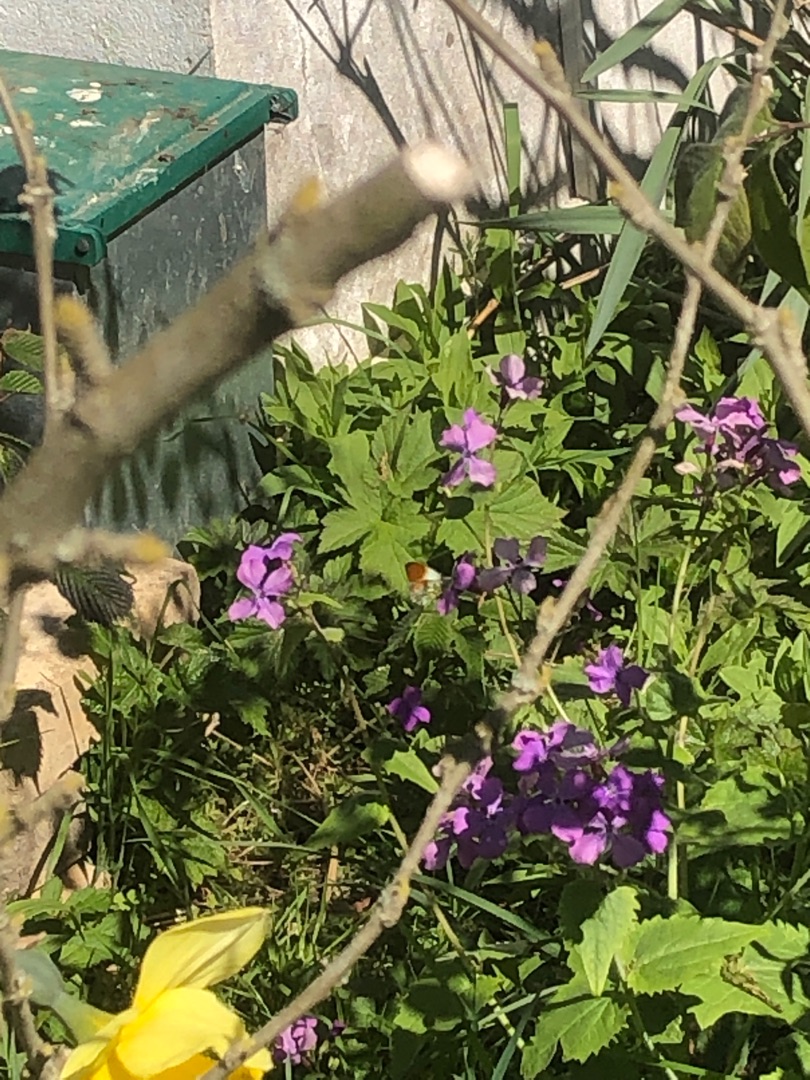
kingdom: Animalia
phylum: Arthropoda
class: Insecta
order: Lepidoptera
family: Pieridae
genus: Anthocharis
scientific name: Anthocharis cardamines
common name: Aurora
